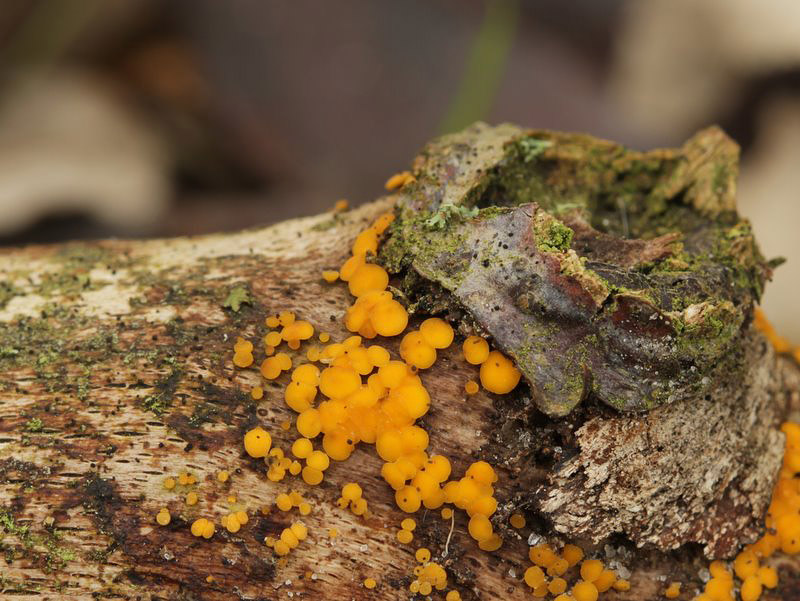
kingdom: Fungi
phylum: Ascomycota
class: Leotiomycetes
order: Helotiales
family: Pezizellaceae
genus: Calycina
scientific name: Calycina citrina
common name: almindelig gulskive
